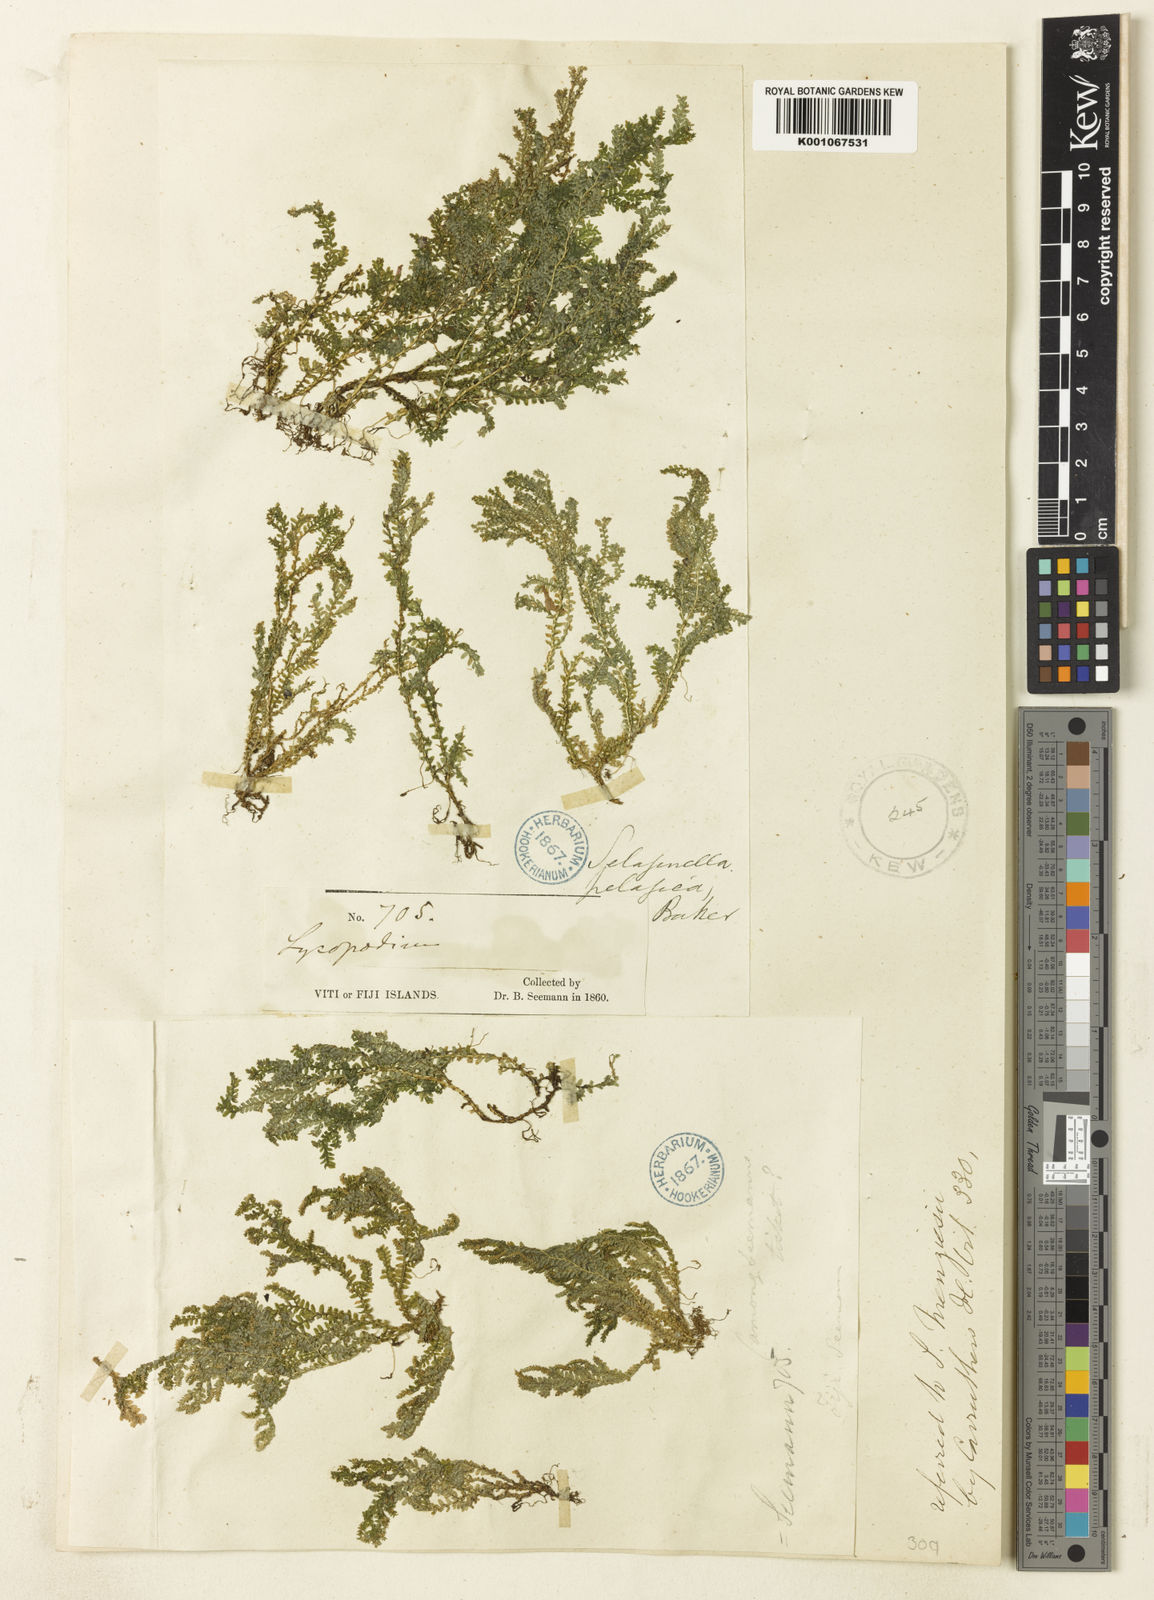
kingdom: Plantae
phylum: Tracheophyta
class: Lycopodiopsida
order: Selaginellales
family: Selaginellaceae
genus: Selaginella
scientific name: Selaginella
